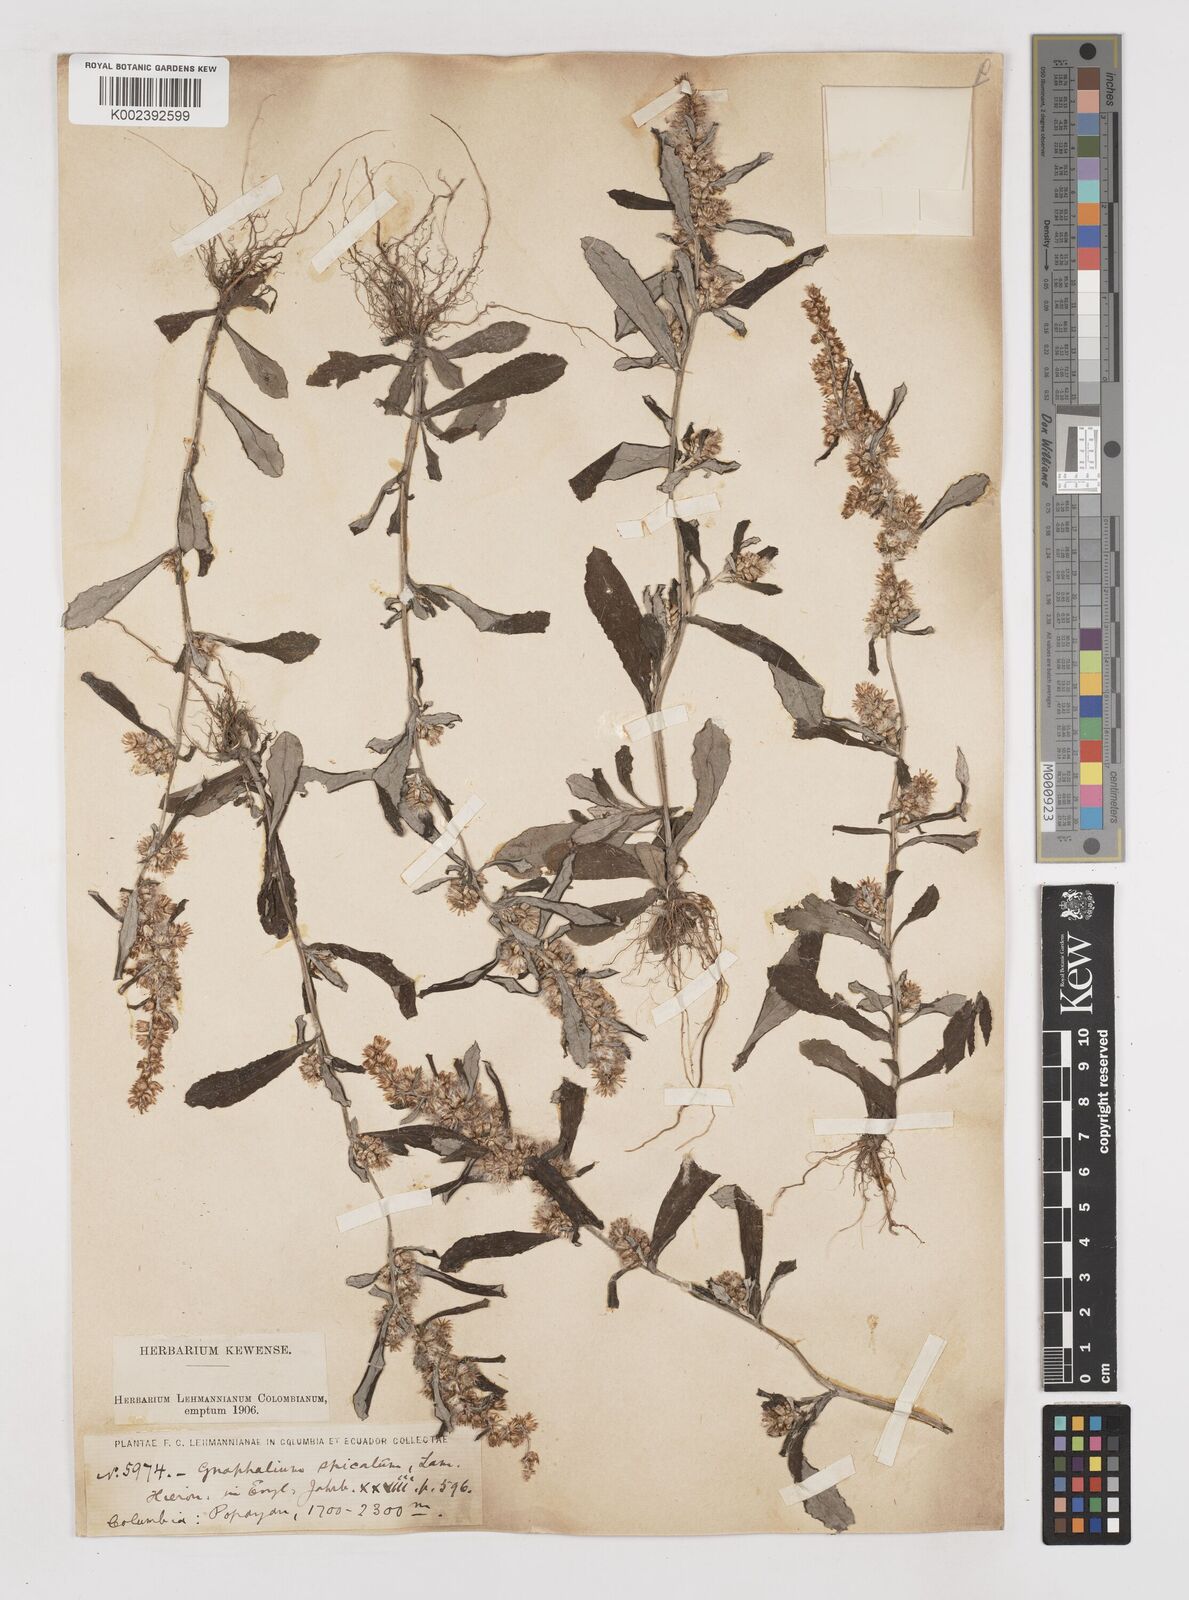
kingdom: Plantae
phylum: Tracheophyta
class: Magnoliopsida
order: Asterales
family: Asteraceae
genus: Gamochaeta
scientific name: Gamochaeta americana
